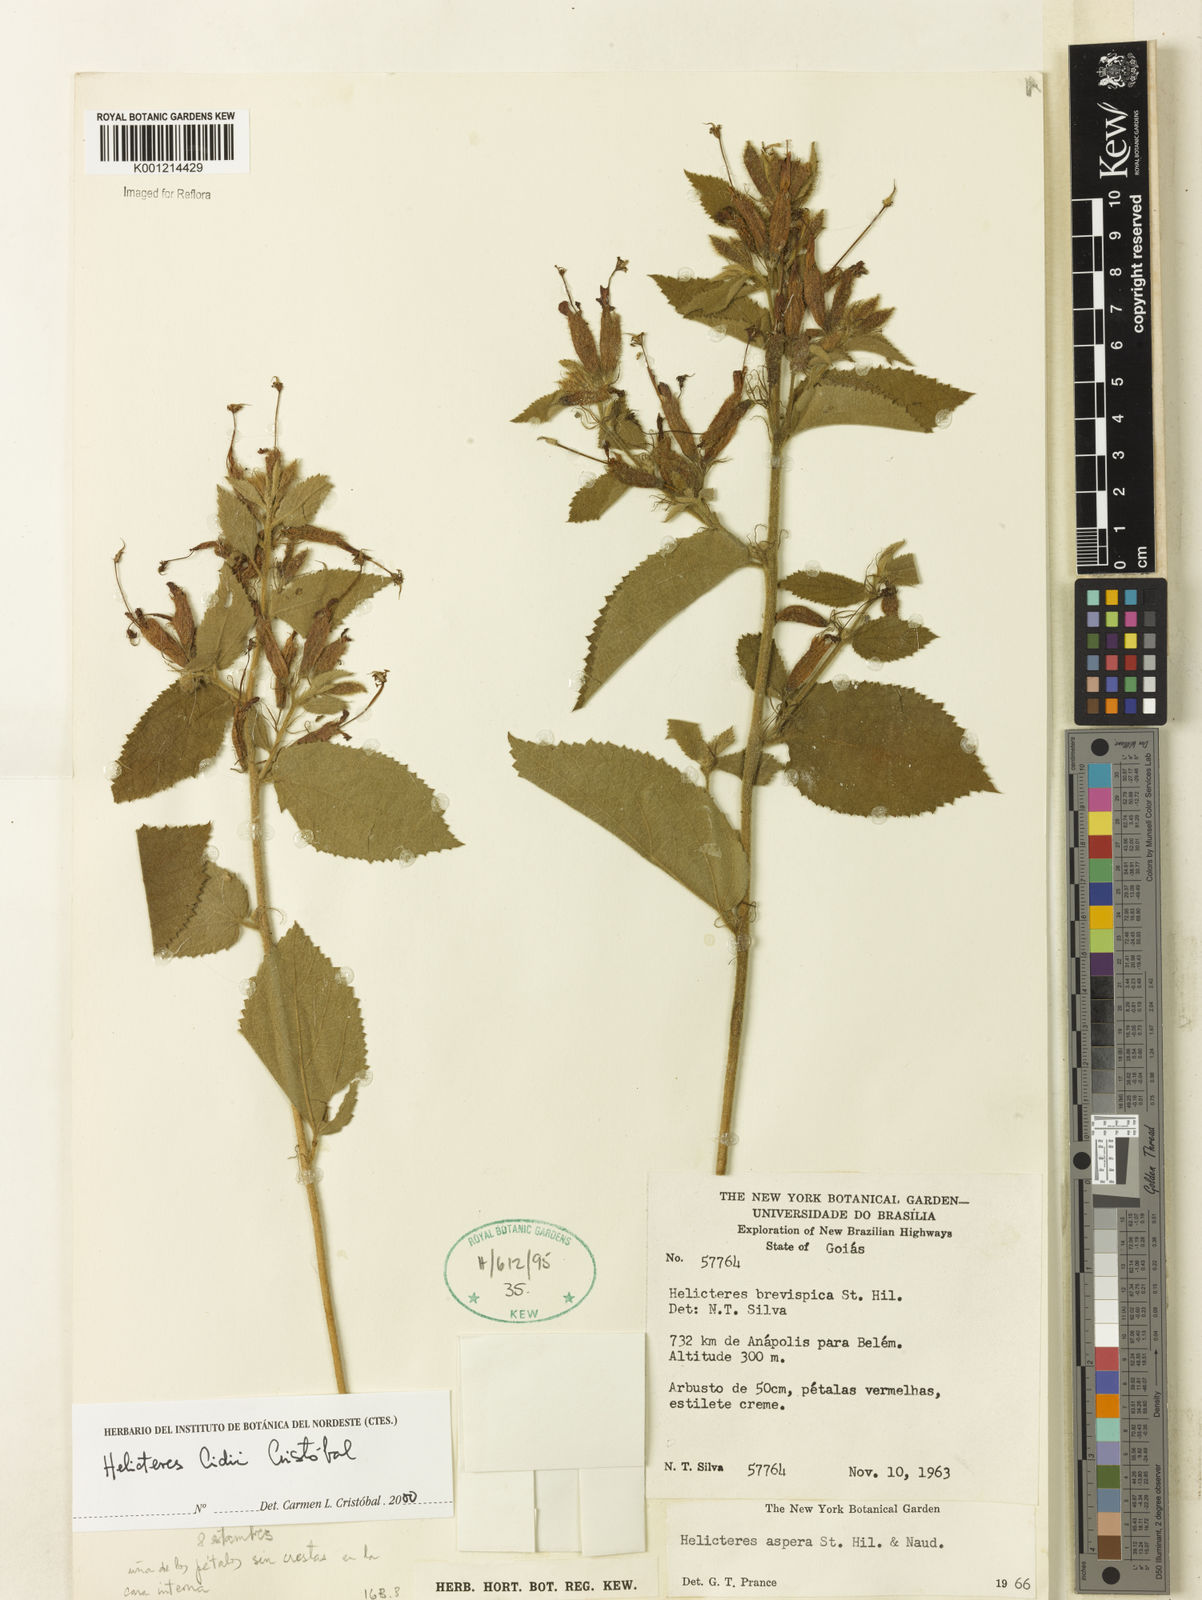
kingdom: Plantae
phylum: Tracheophyta
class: Magnoliopsida
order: Malvales
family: Malvaceae
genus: Helicteres
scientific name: Helicteres
